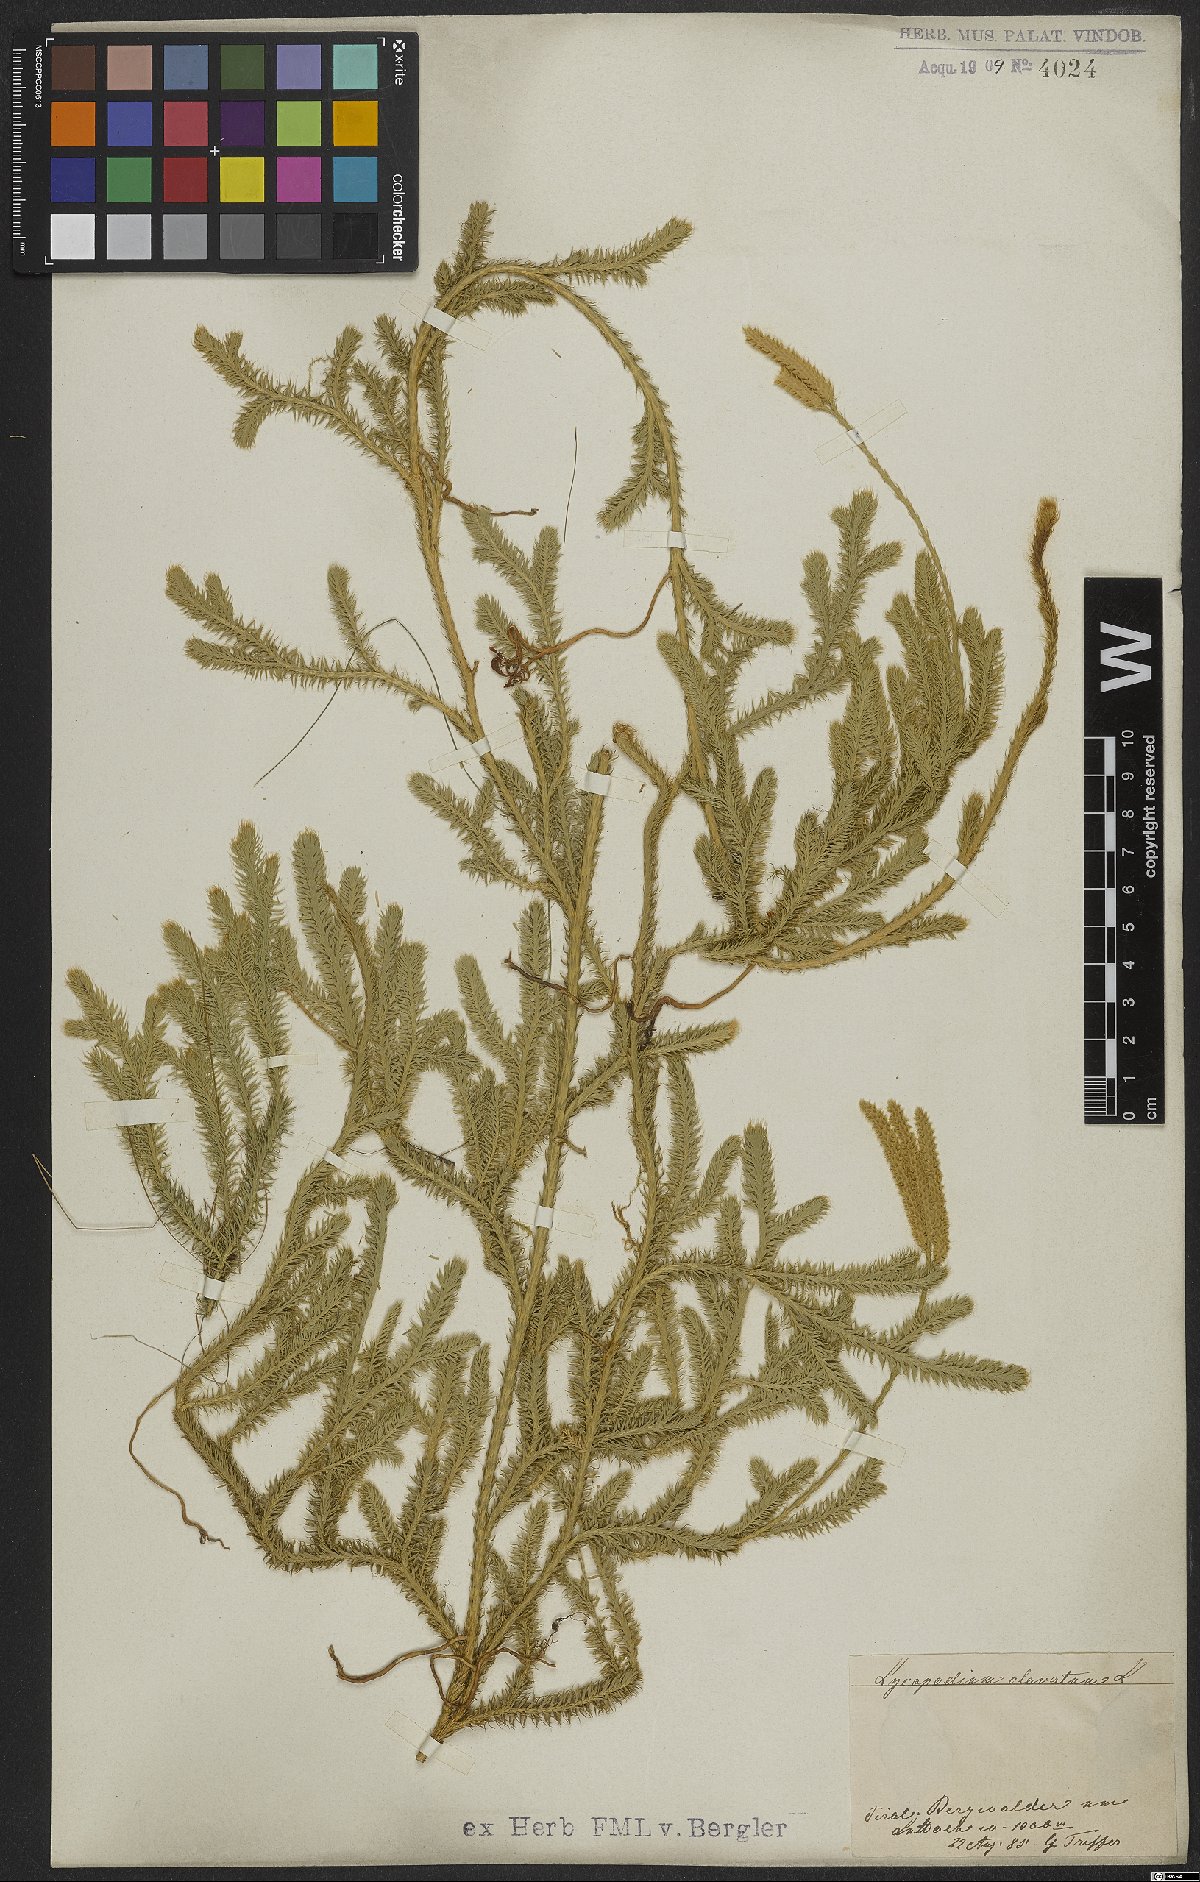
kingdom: Plantae
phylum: Tracheophyta
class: Lycopodiopsida
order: Lycopodiales
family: Lycopodiaceae
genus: Lycopodium
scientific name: Lycopodium clavatum
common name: Stag's-horn clubmoss
